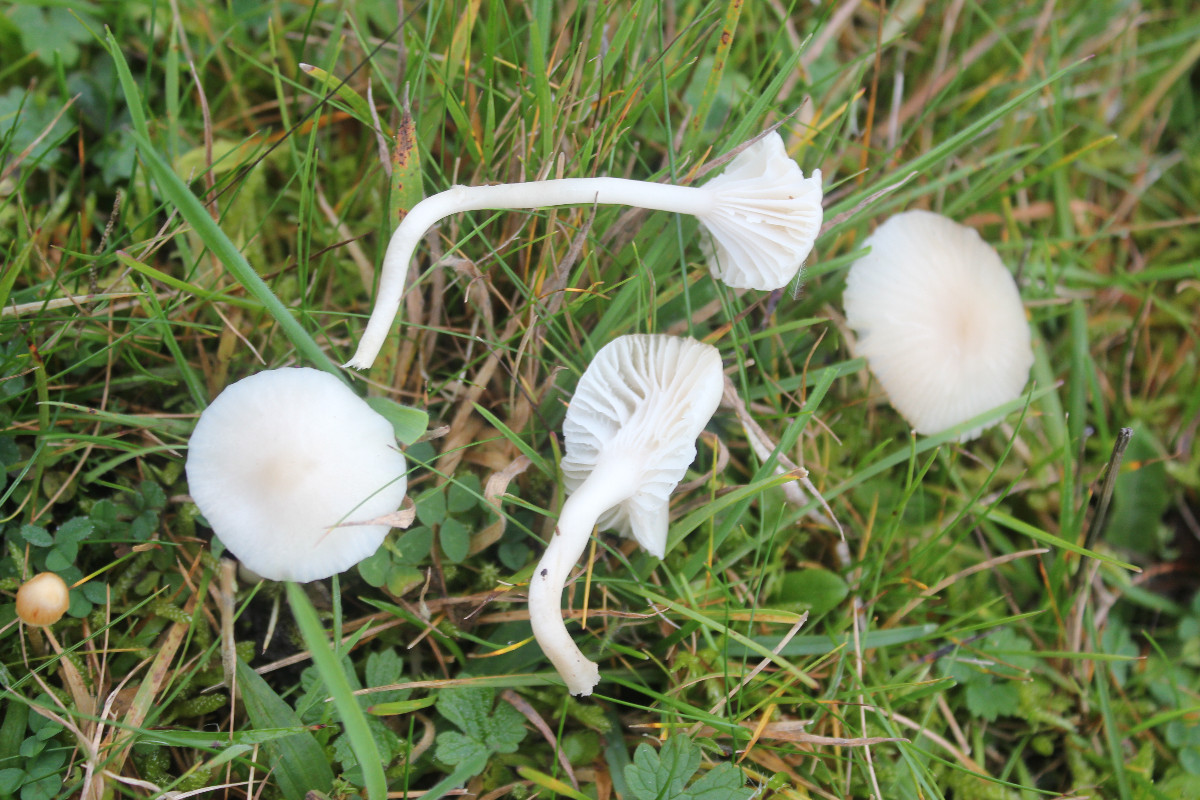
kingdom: Fungi
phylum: Basidiomycota
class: Agaricomycetes
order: Agaricales
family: Hygrophoraceae
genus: Cuphophyllus
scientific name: Cuphophyllus virgineus
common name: snehvid vokshat
